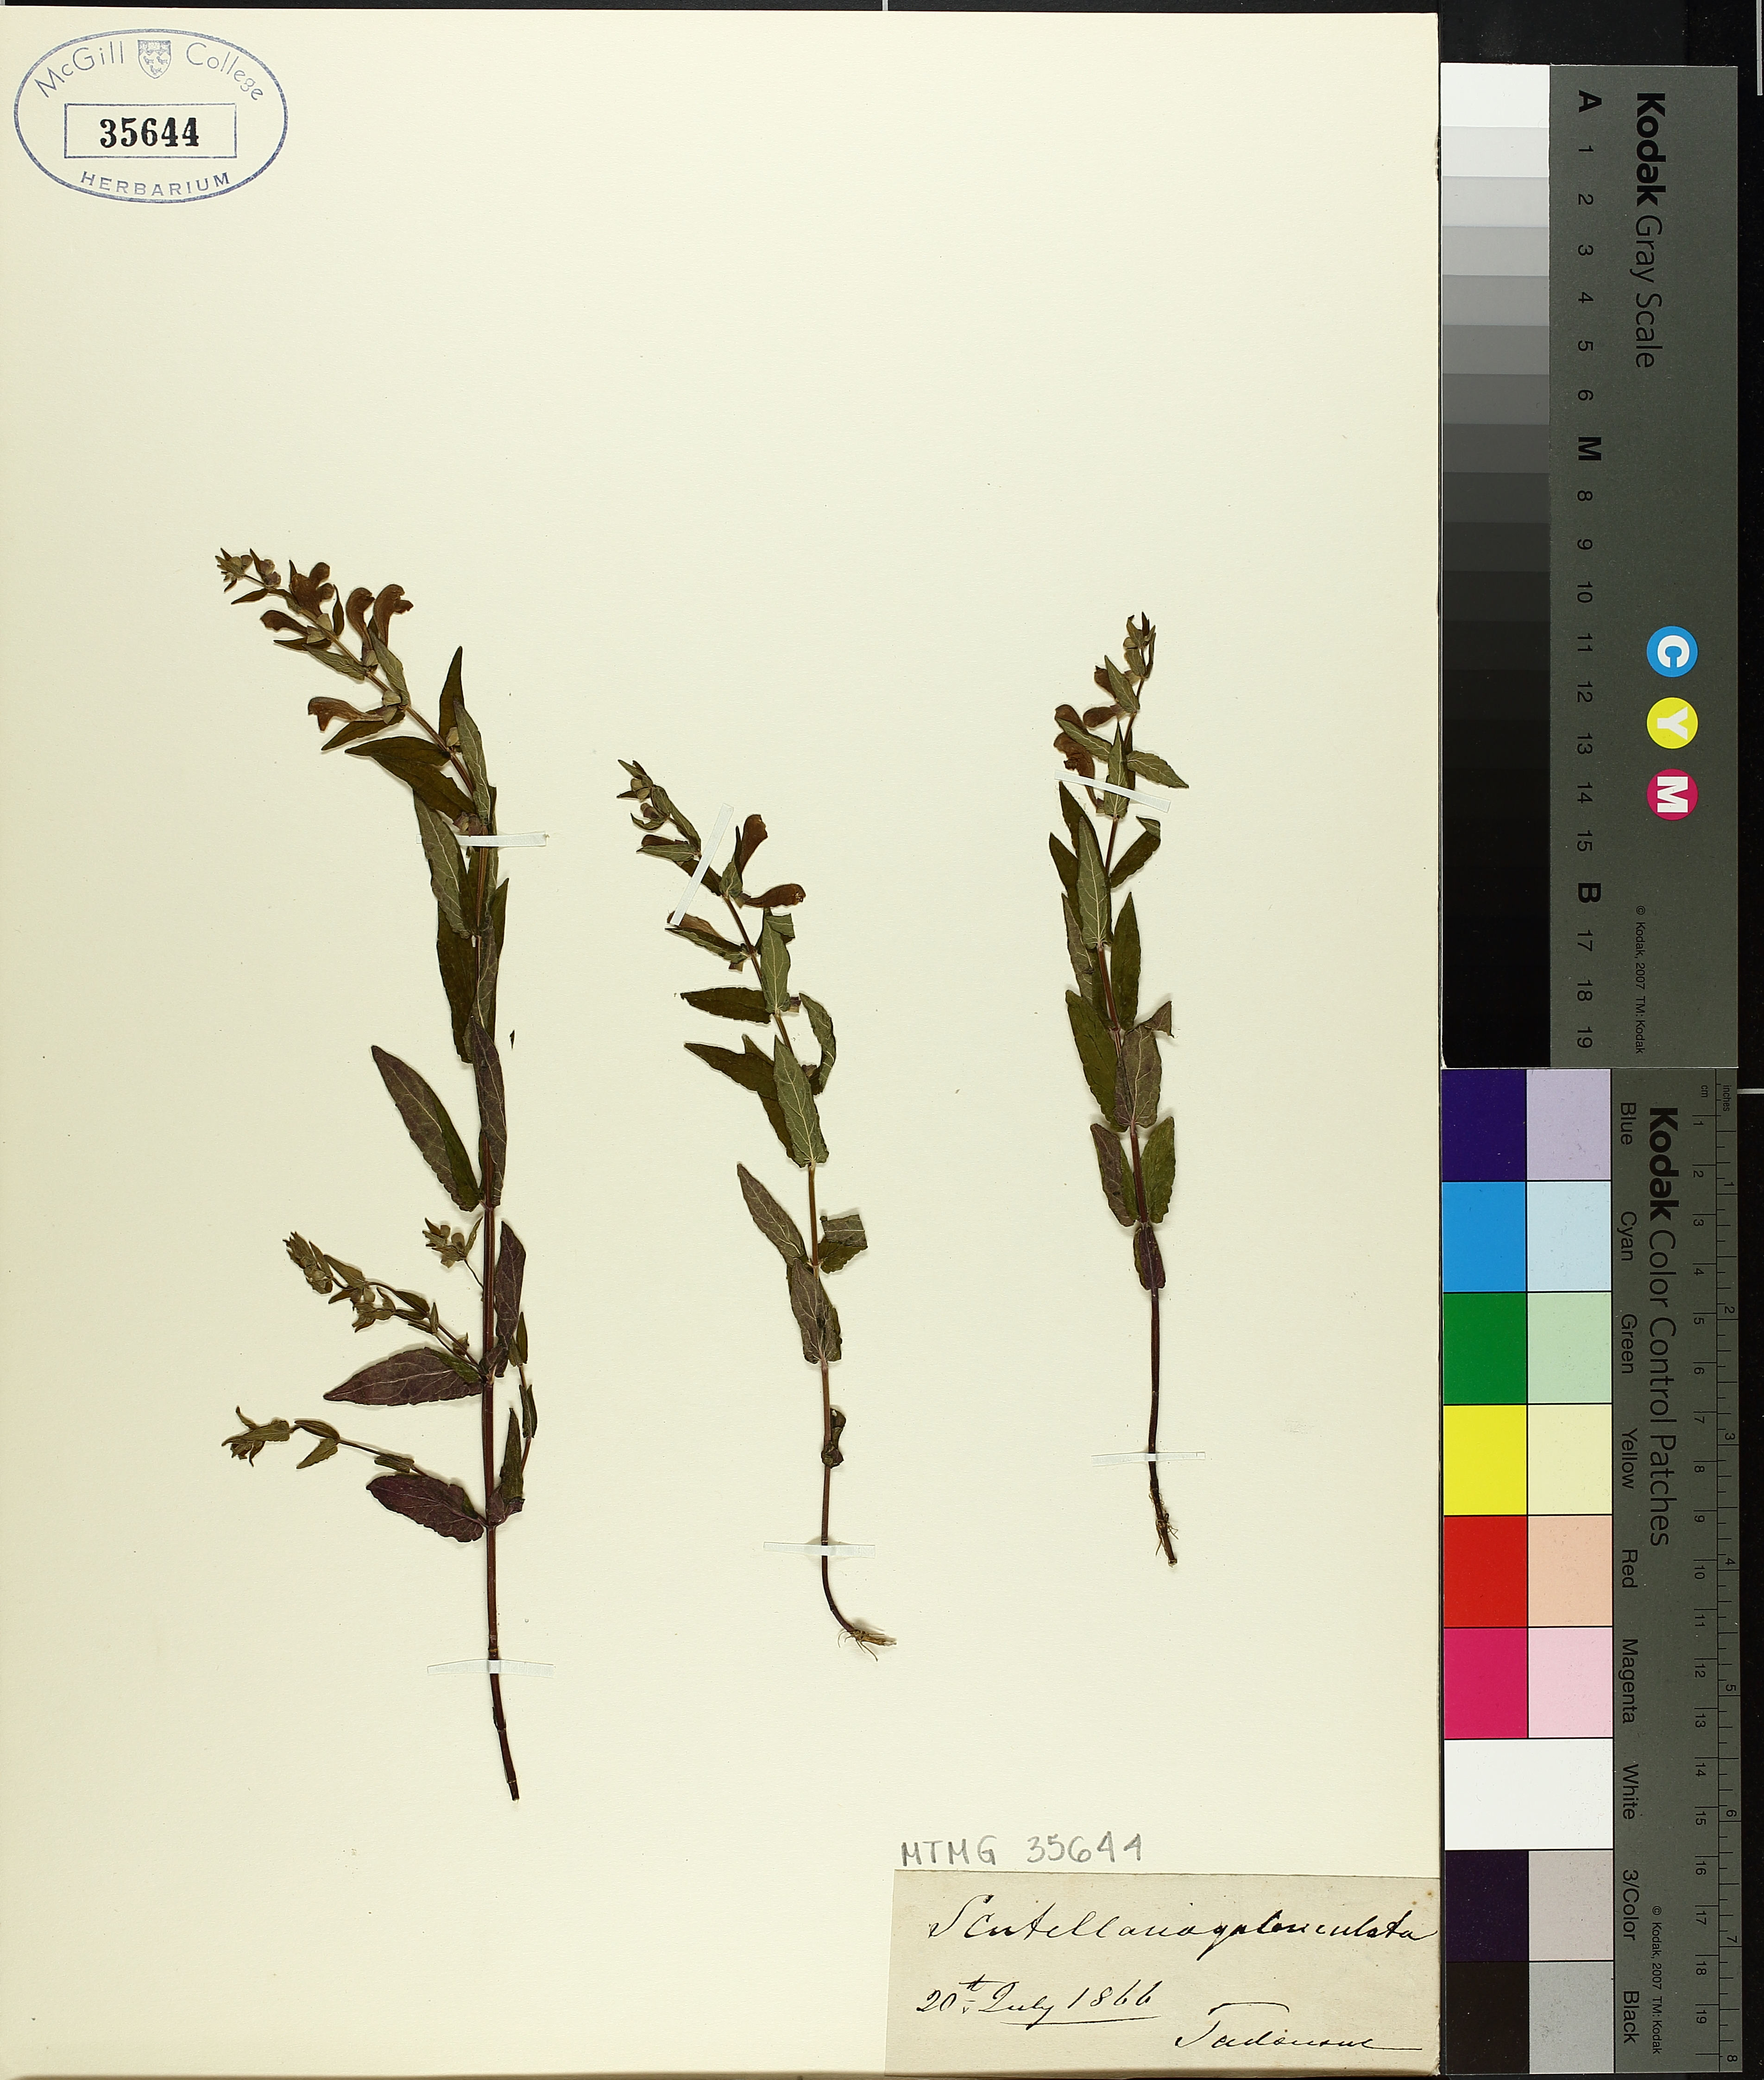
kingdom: Plantae
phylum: Tracheophyta
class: Magnoliopsida
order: Lamiales
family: Lamiaceae
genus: Scutellaria
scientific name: Scutellaria galericulata
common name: Skullcap
